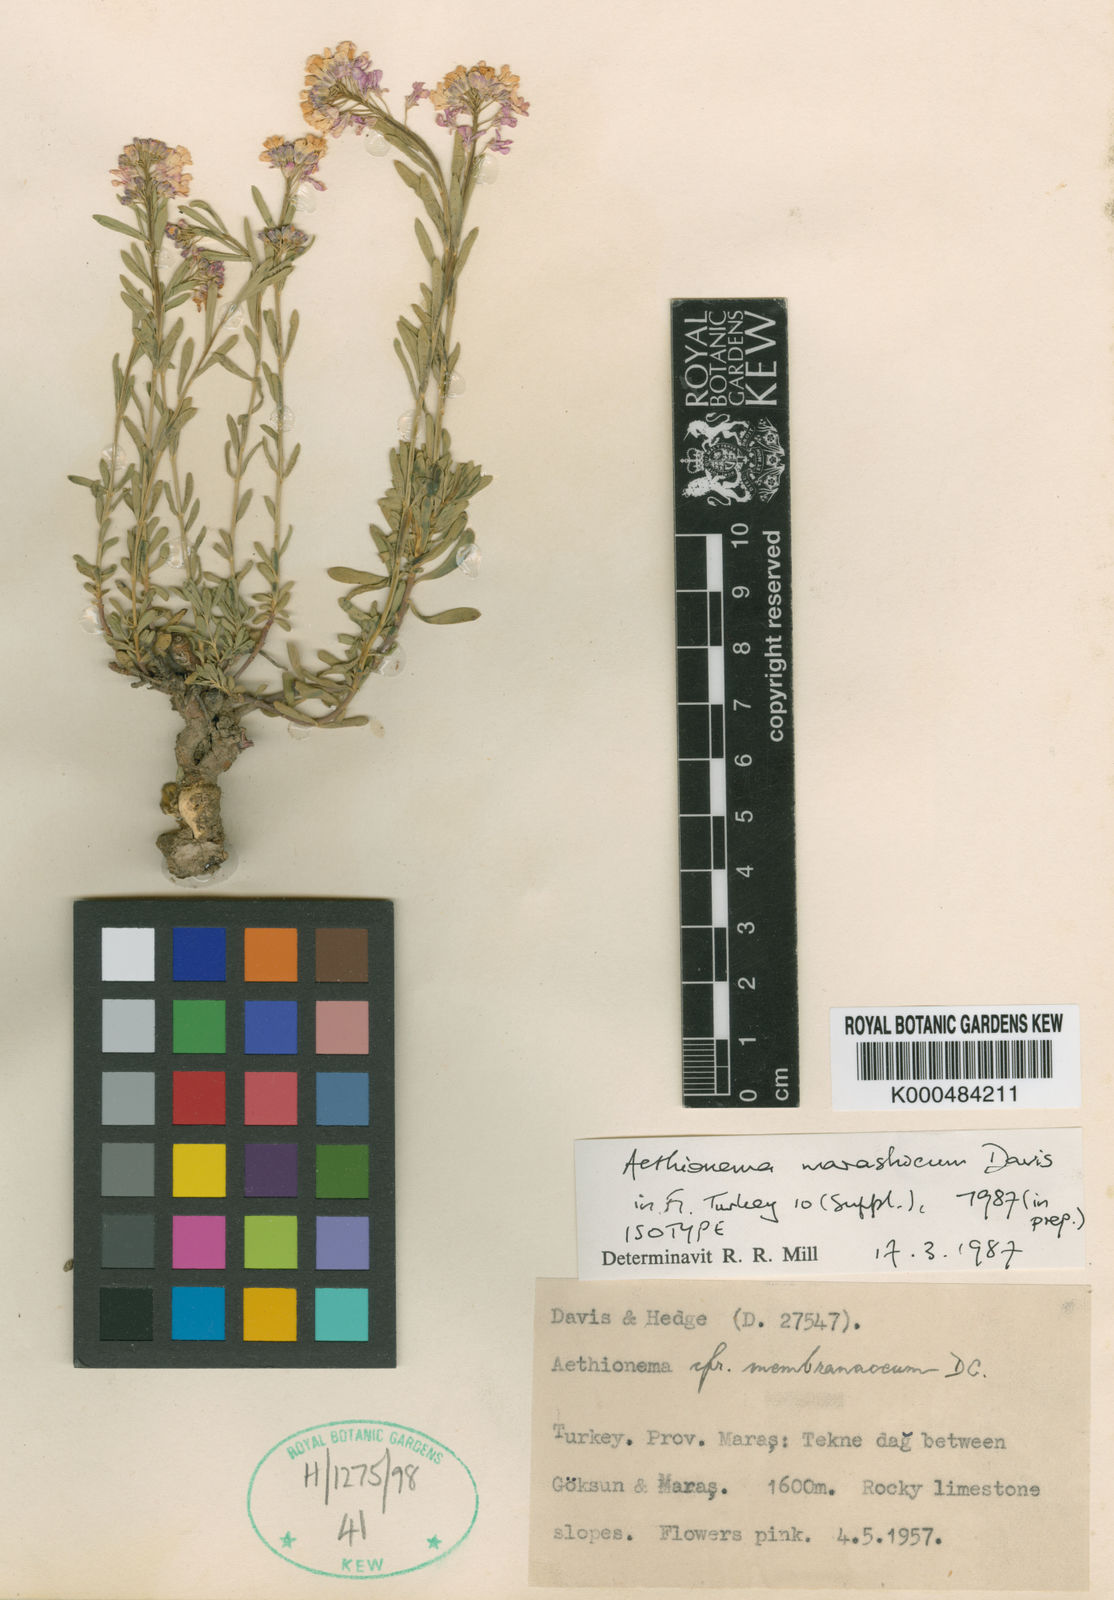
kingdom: Plantae
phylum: Tracheophyta
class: Magnoliopsida
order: Brassicales
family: Brassicaceae
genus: Aethionema
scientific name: Aethionema marashicum
